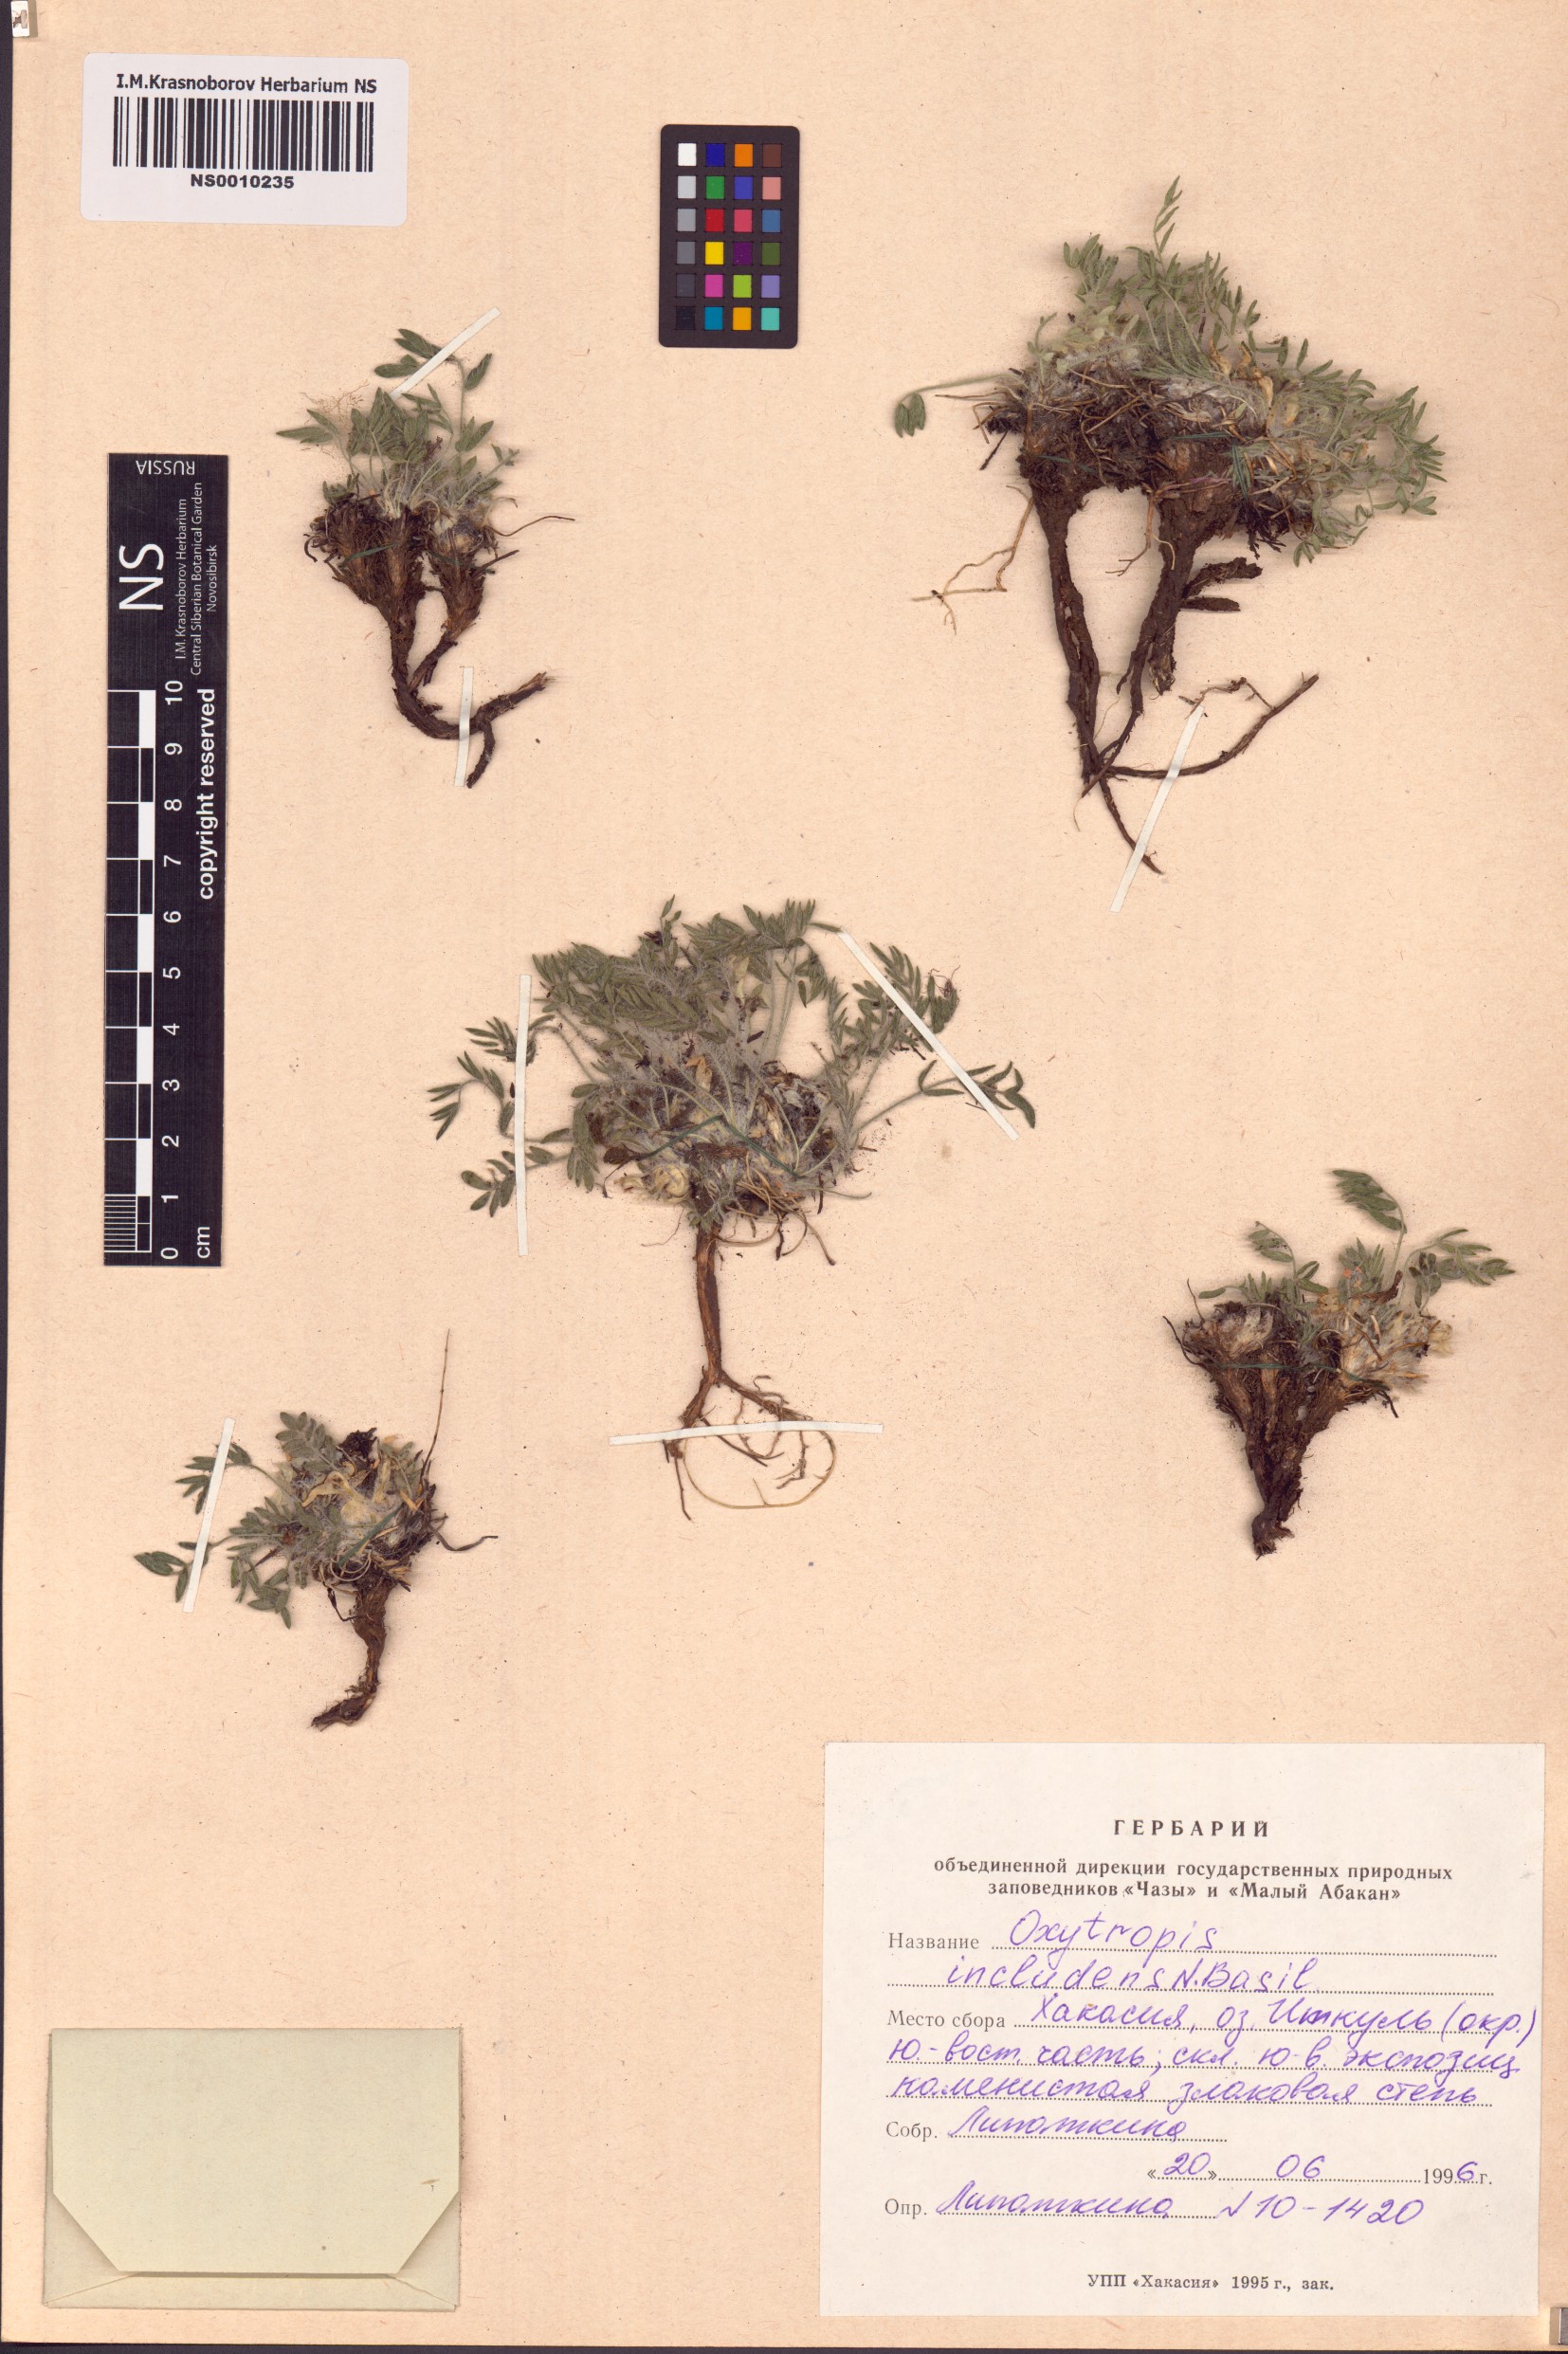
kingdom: Plantae
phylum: Tracheophyta
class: Magnoliopsida
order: Fabales
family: Fabaceae
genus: Oxytropis
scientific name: Oxytropis includens
